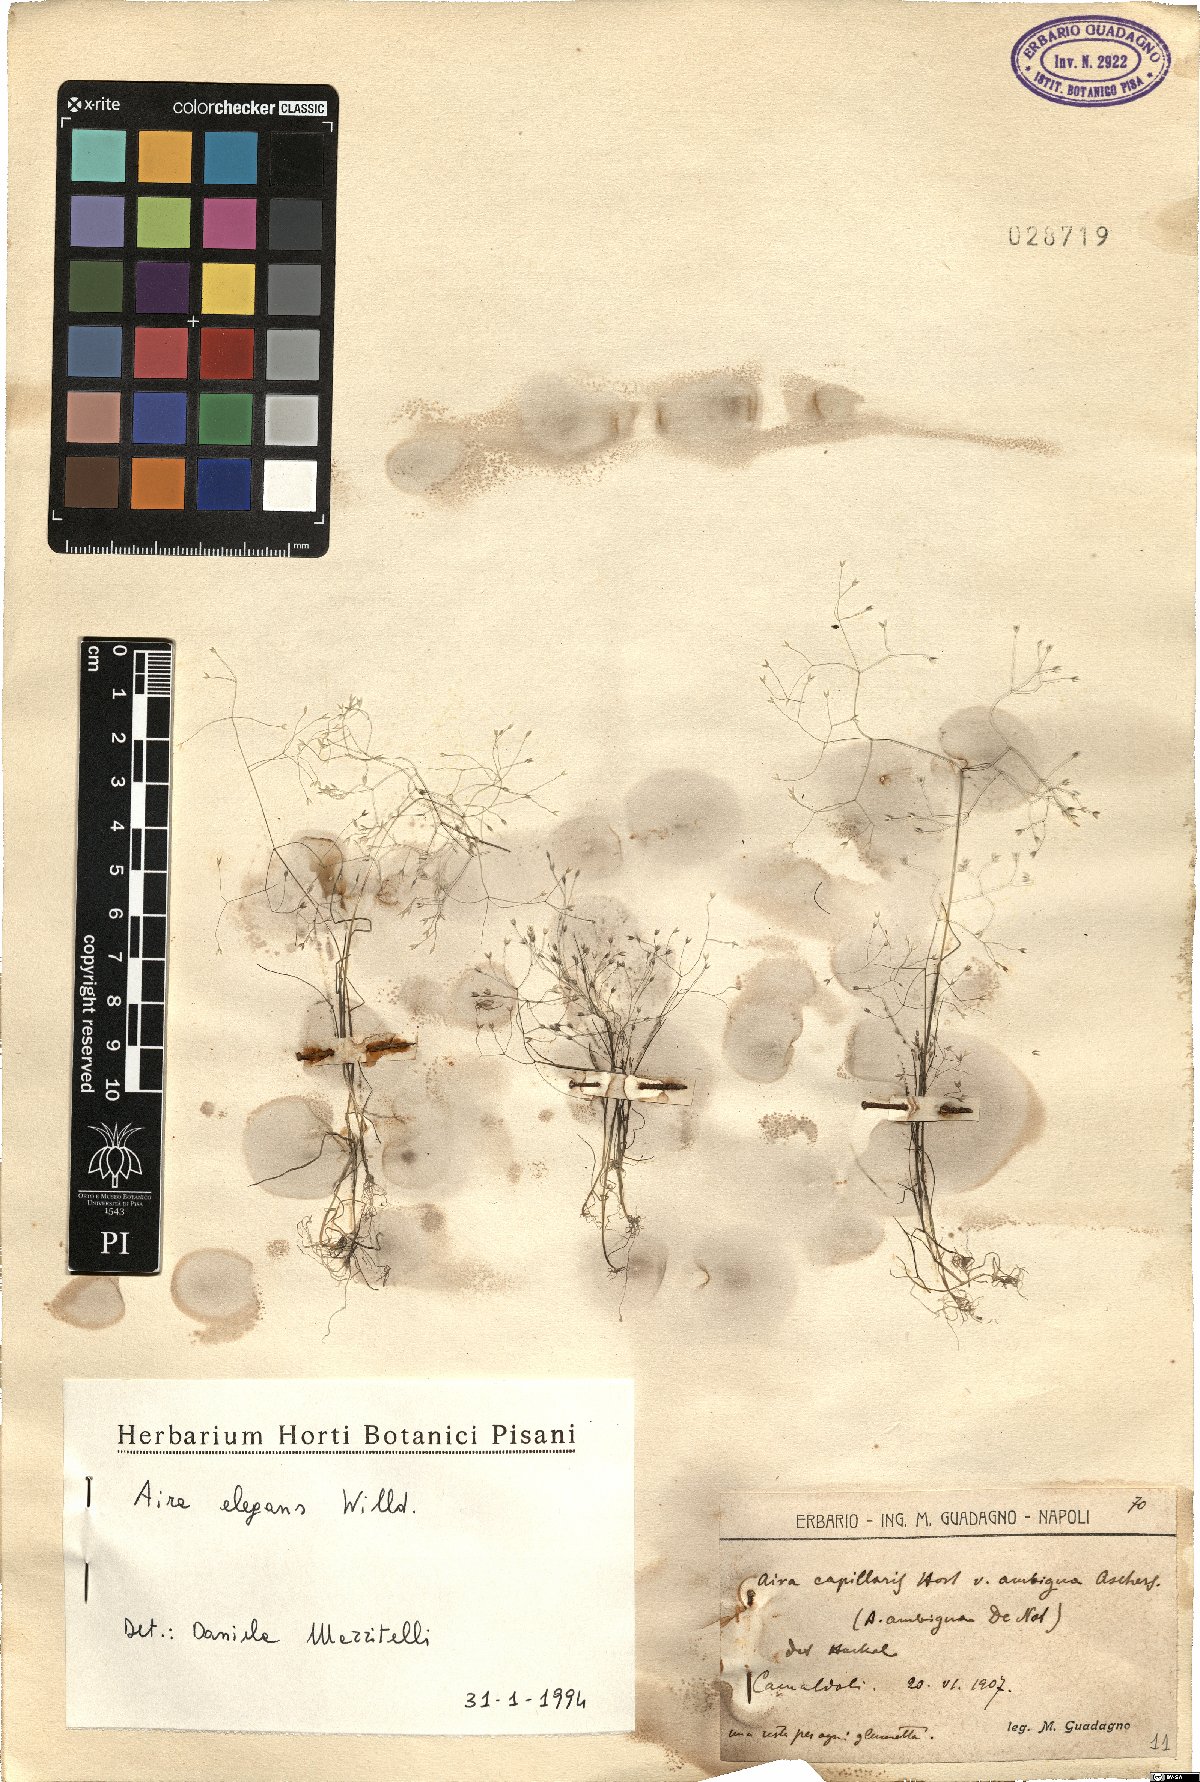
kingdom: Plantae
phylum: Tracheophyta
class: Liliopsida
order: Poales
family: Poaceae
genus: Aira
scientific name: Aira elegans
